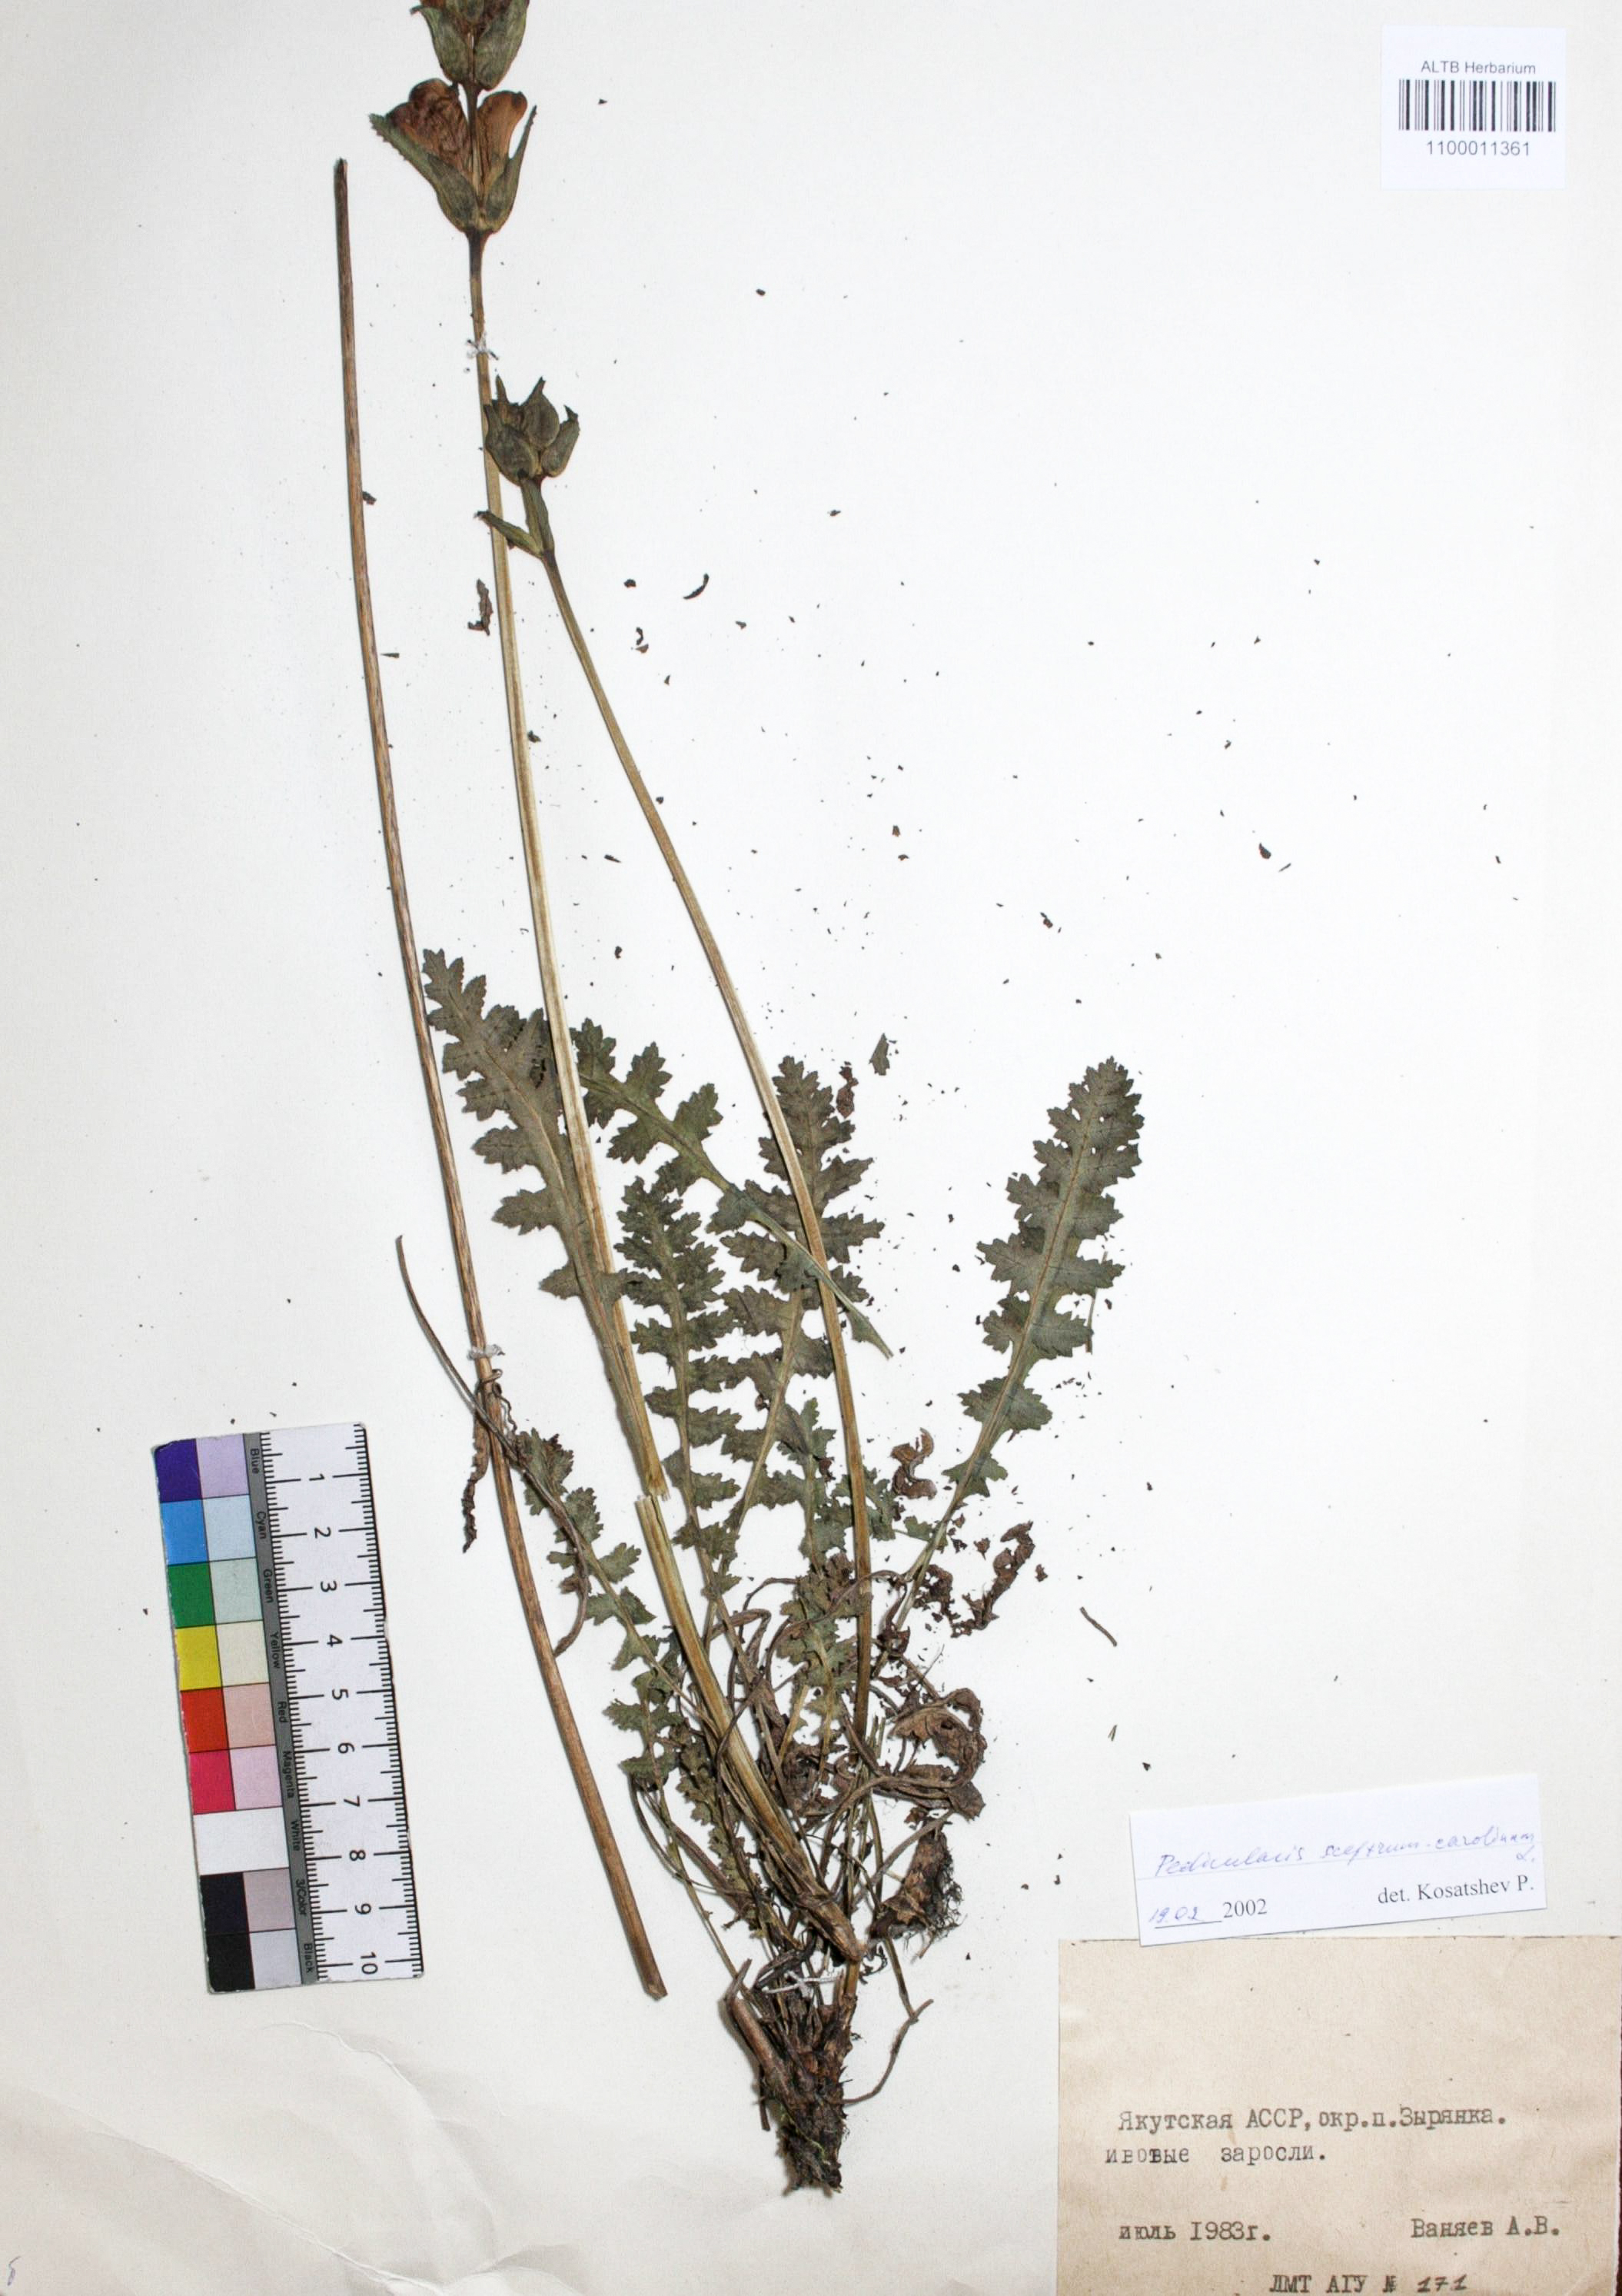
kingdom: Plantae
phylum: Tracheophyta
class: Magnoliopsida
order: Lamiales
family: Orobanchaceae
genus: Pedicularis
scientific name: Pedicularis sceptrum-carolinum
